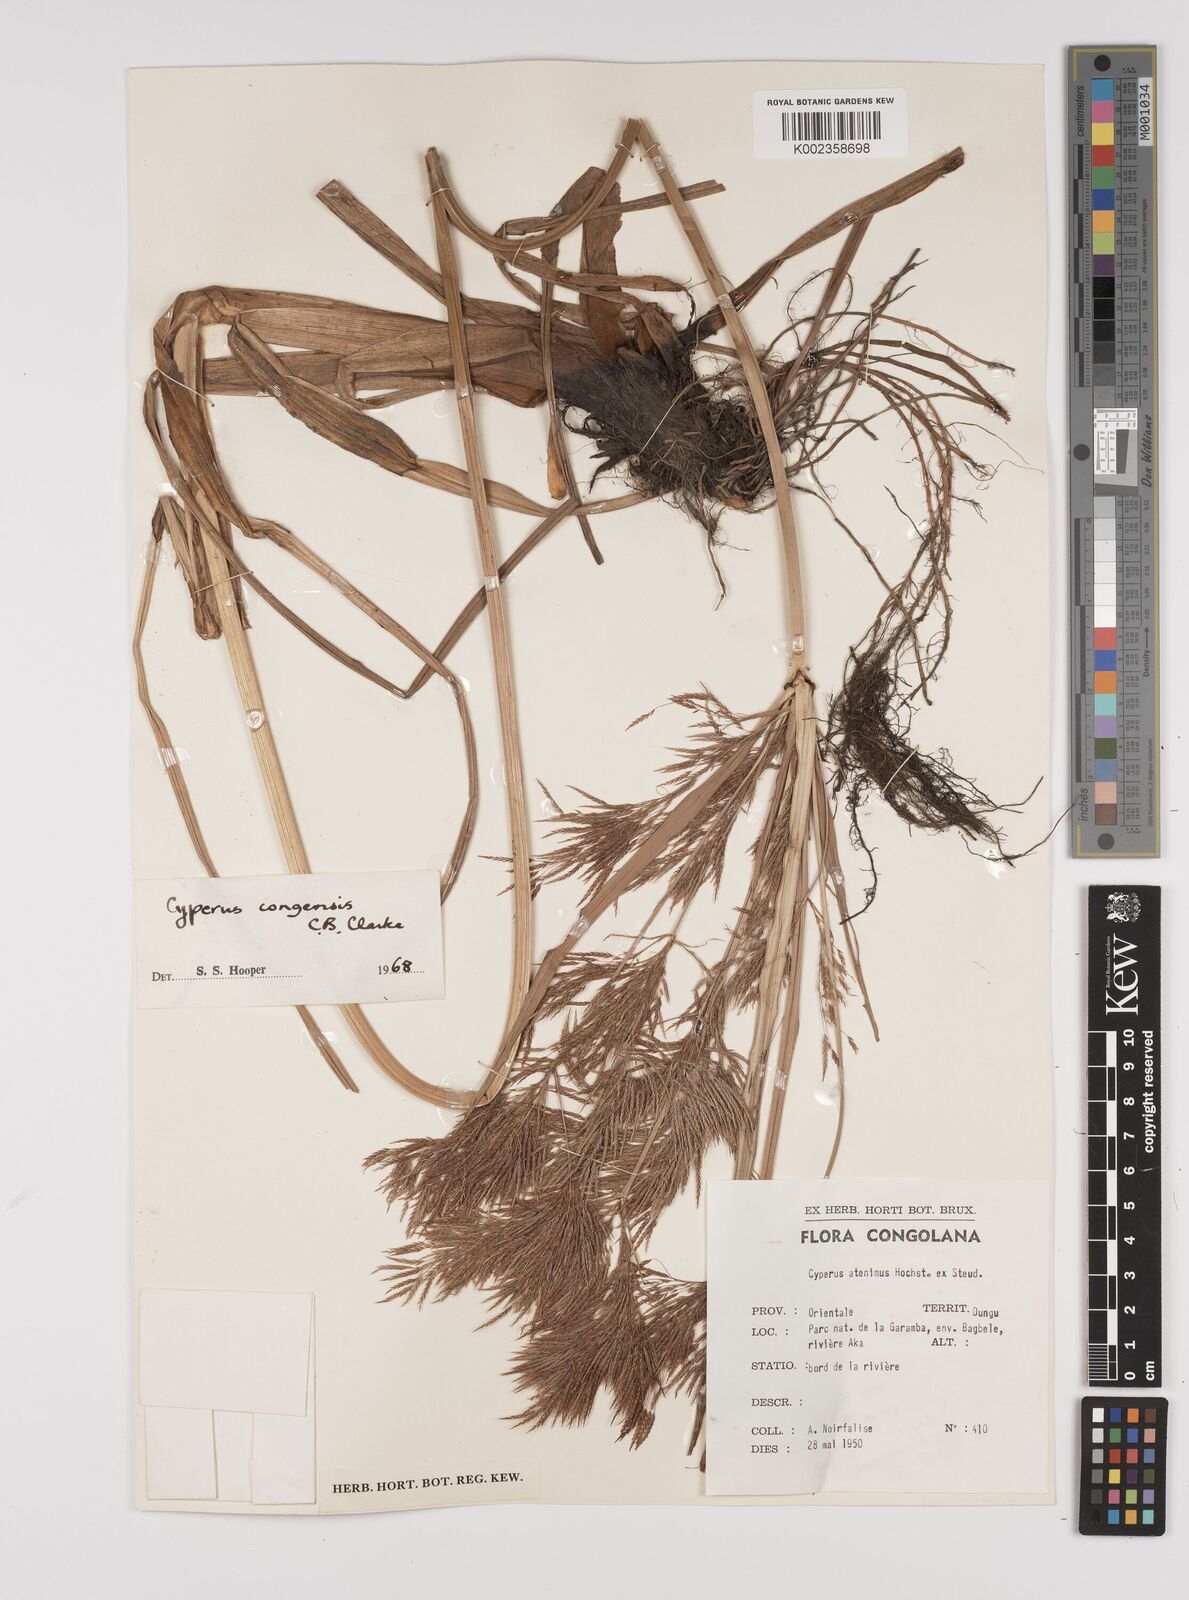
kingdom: Plantae
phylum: Tracheophyta
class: Liliopsida
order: Poales
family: Cyperaceae
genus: Cyperus
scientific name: Cyperus congensis
